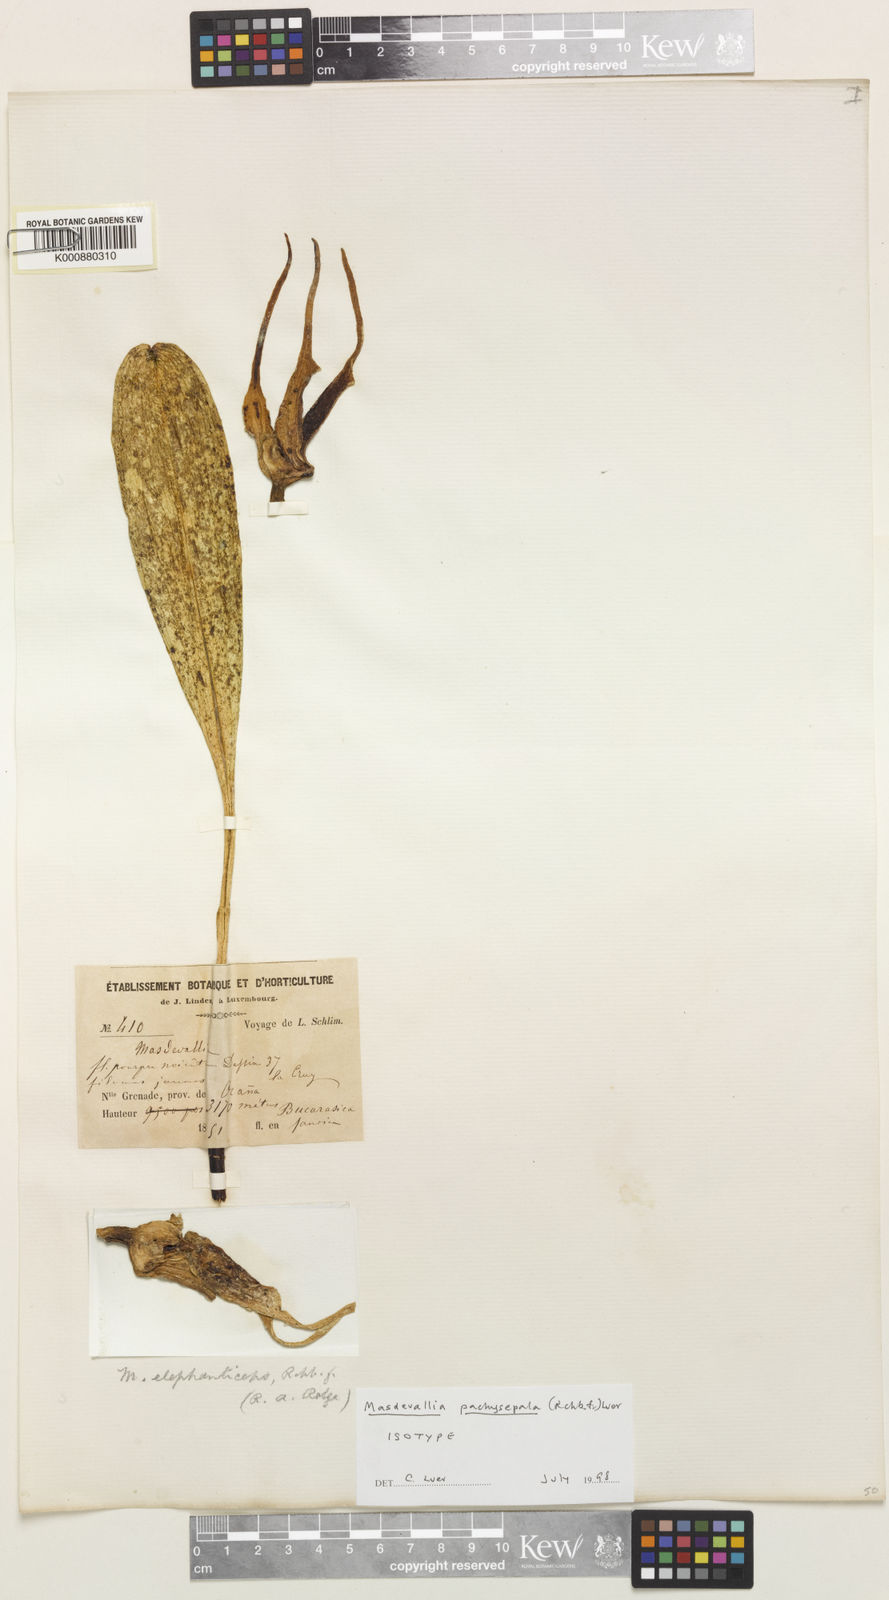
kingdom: Plantae
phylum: Tracheophyta
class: Liliopsida
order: Asparagales
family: Orchidaceae
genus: Masdevallia
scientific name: Masdevallia pachysepala
